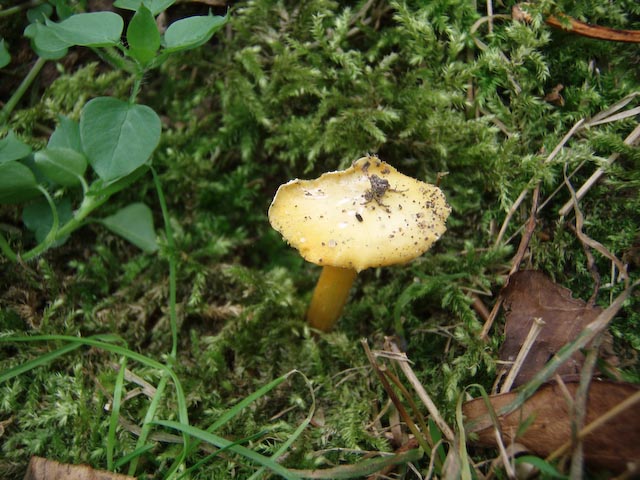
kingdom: Fungi
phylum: Basidiomycota
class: Agaricomycetes
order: Agaricales
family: Hygrophoraceae
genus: Hygrocybe
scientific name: Hygrocybe chlorophana
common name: gul vokshat
